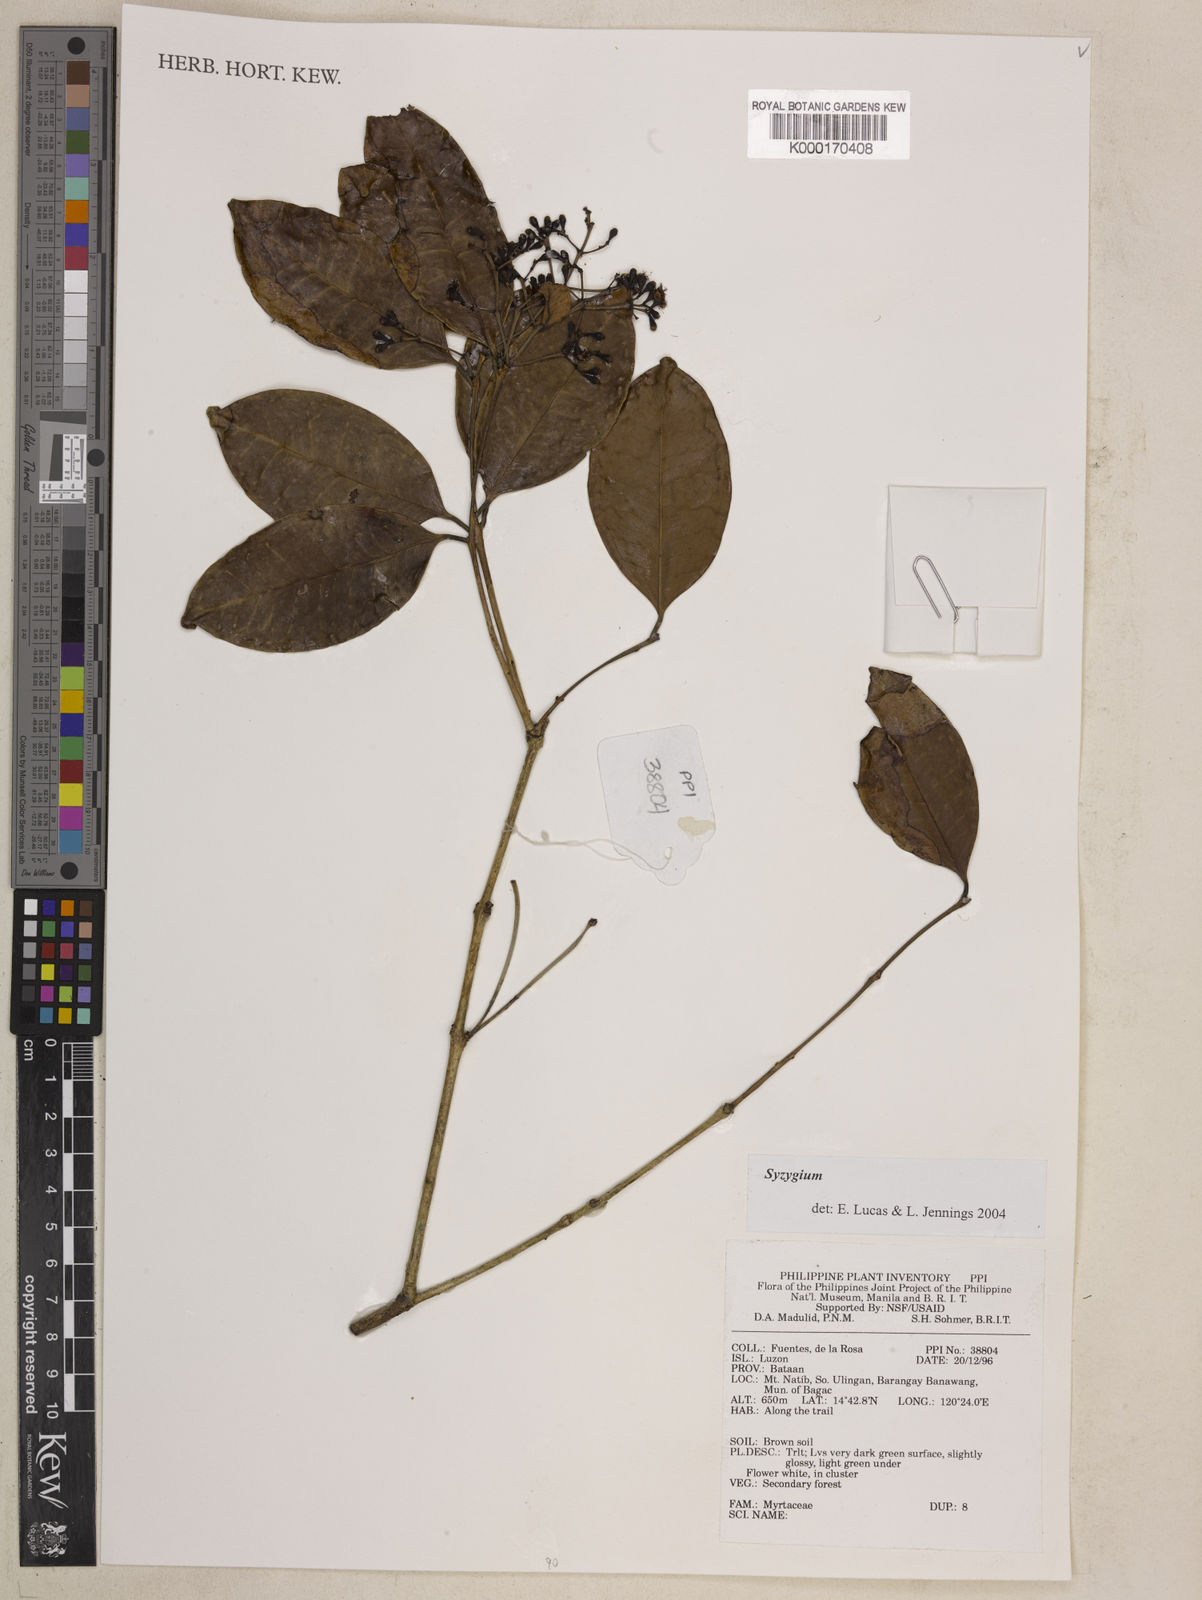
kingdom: Plantae
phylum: Tracheophyta
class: Magnoliopsida
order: Myrtales
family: Myrtaceae
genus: Syzygium
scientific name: Syzygium
